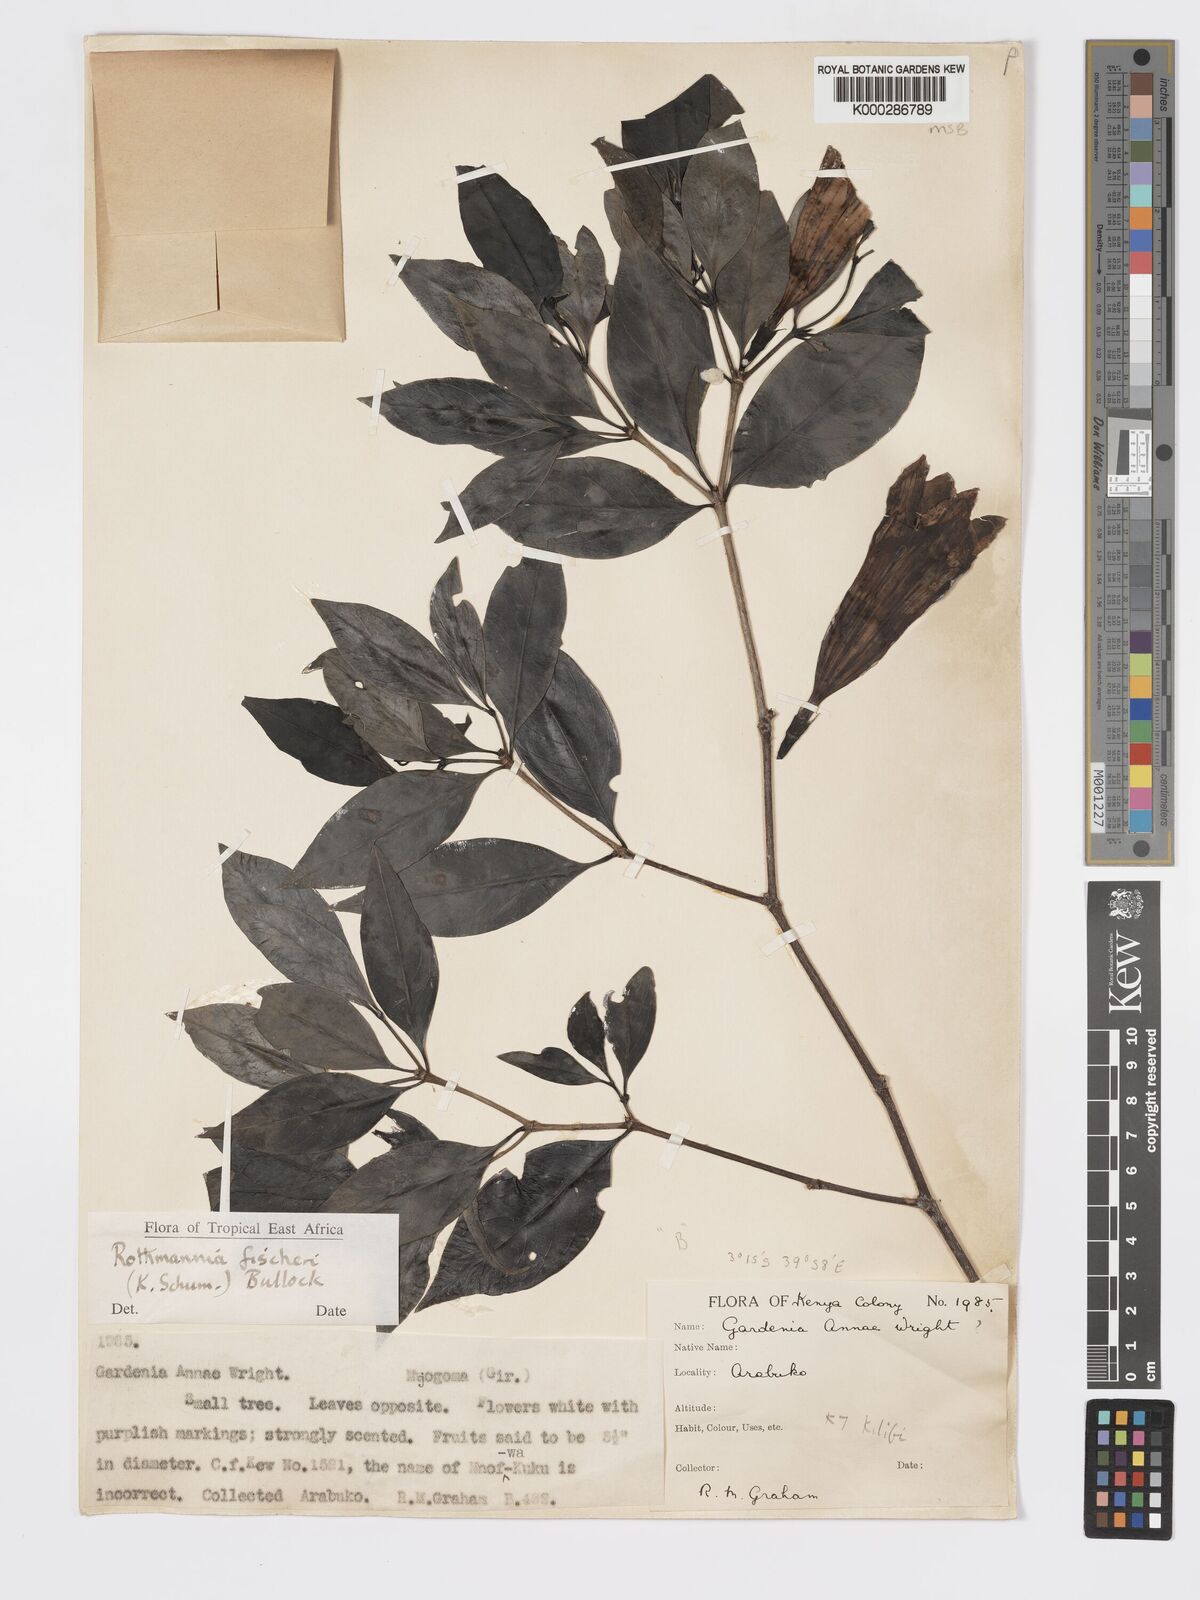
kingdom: Plantae
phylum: Tracheophyta
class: Magnoliopsida
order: Gentianales
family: Rubiaceae
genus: Rothmannia
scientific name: Rothmannia ravae
